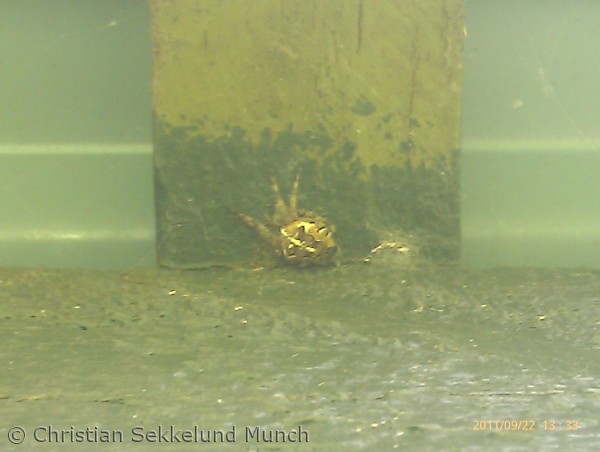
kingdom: Animalia
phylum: Arthropoda
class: Arachnida
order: Araneae
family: Araneidae
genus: Araneus
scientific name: Araneus diadematus
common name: Korsedderkop
